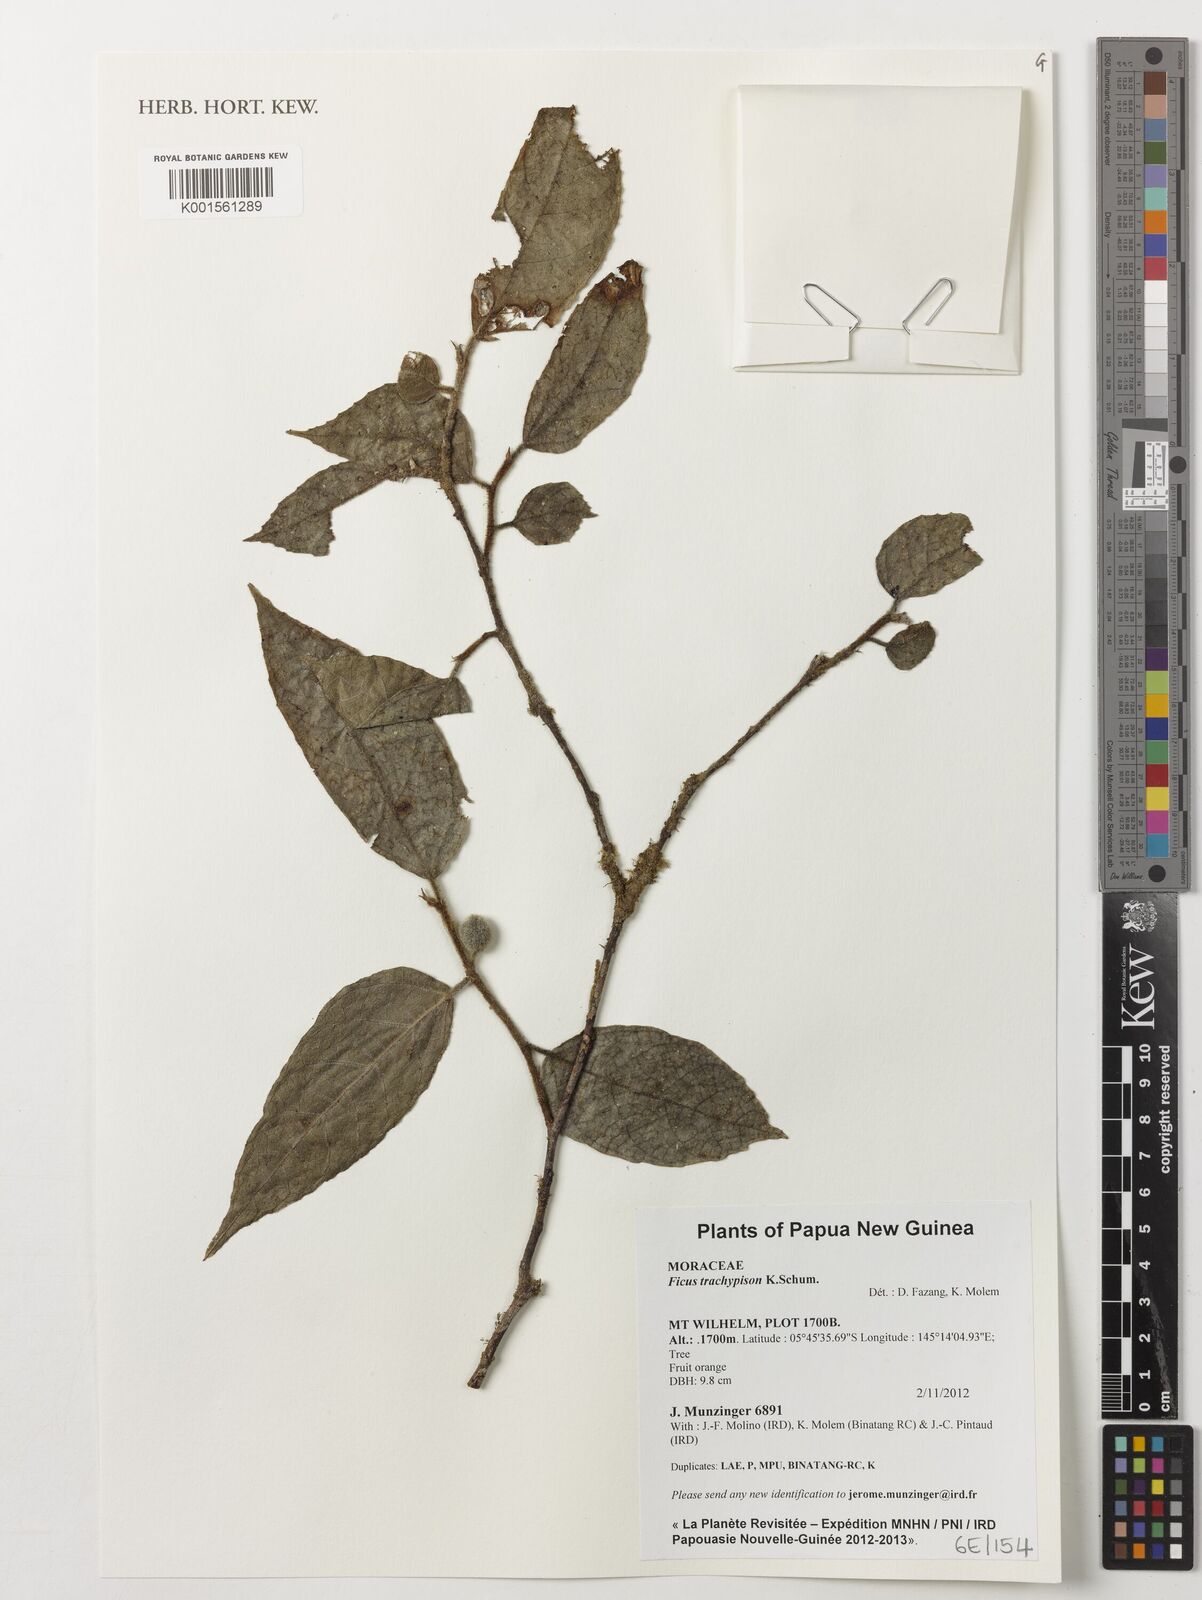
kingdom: Plantae
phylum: Tracheophyta
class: Magnoliopsida
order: Rosales
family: Moraceae
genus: Ficus
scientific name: Ficus trachypison
